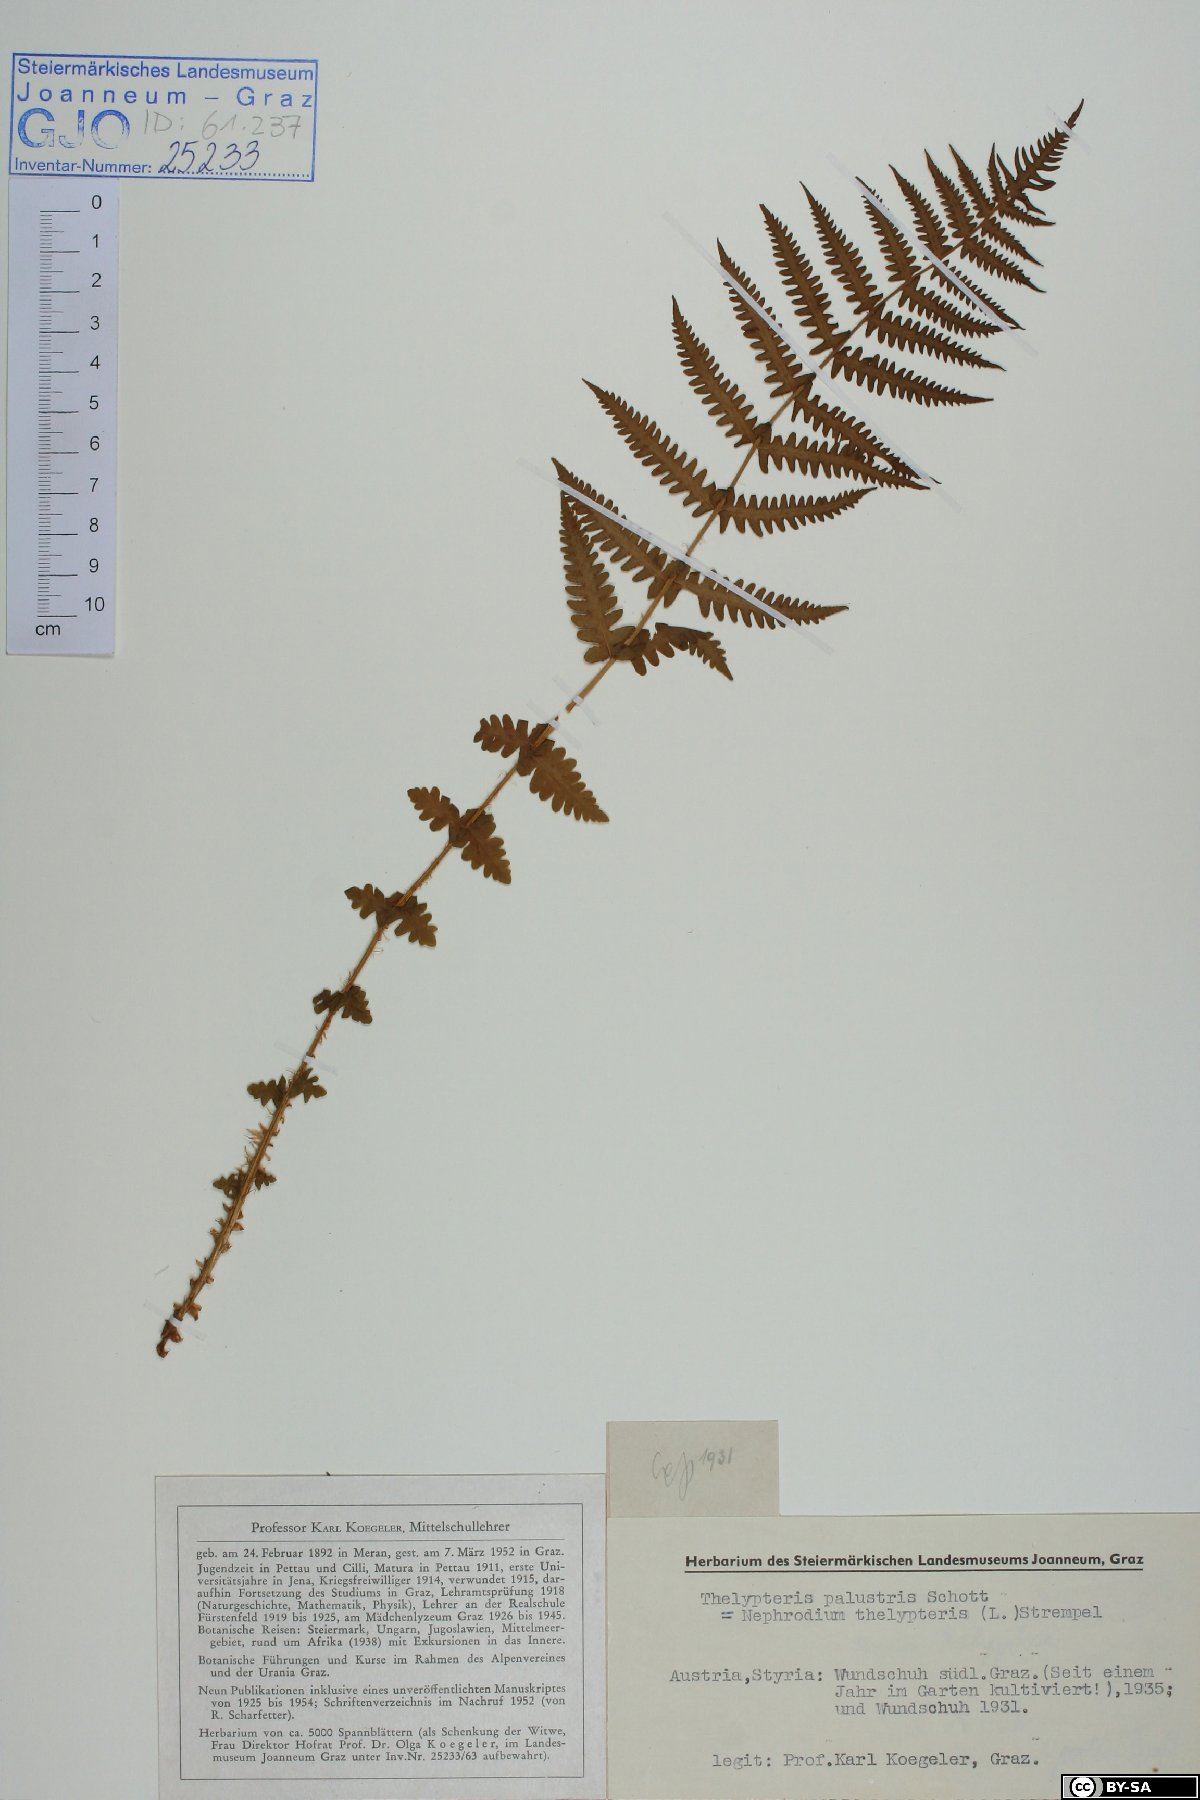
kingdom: Plantae
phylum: Tracheophyta
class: Polypodiopsida
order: Polypodiales
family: Thelypteridaceae
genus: Thelypteris
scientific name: Thelypteris palustris
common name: Marsh fern
